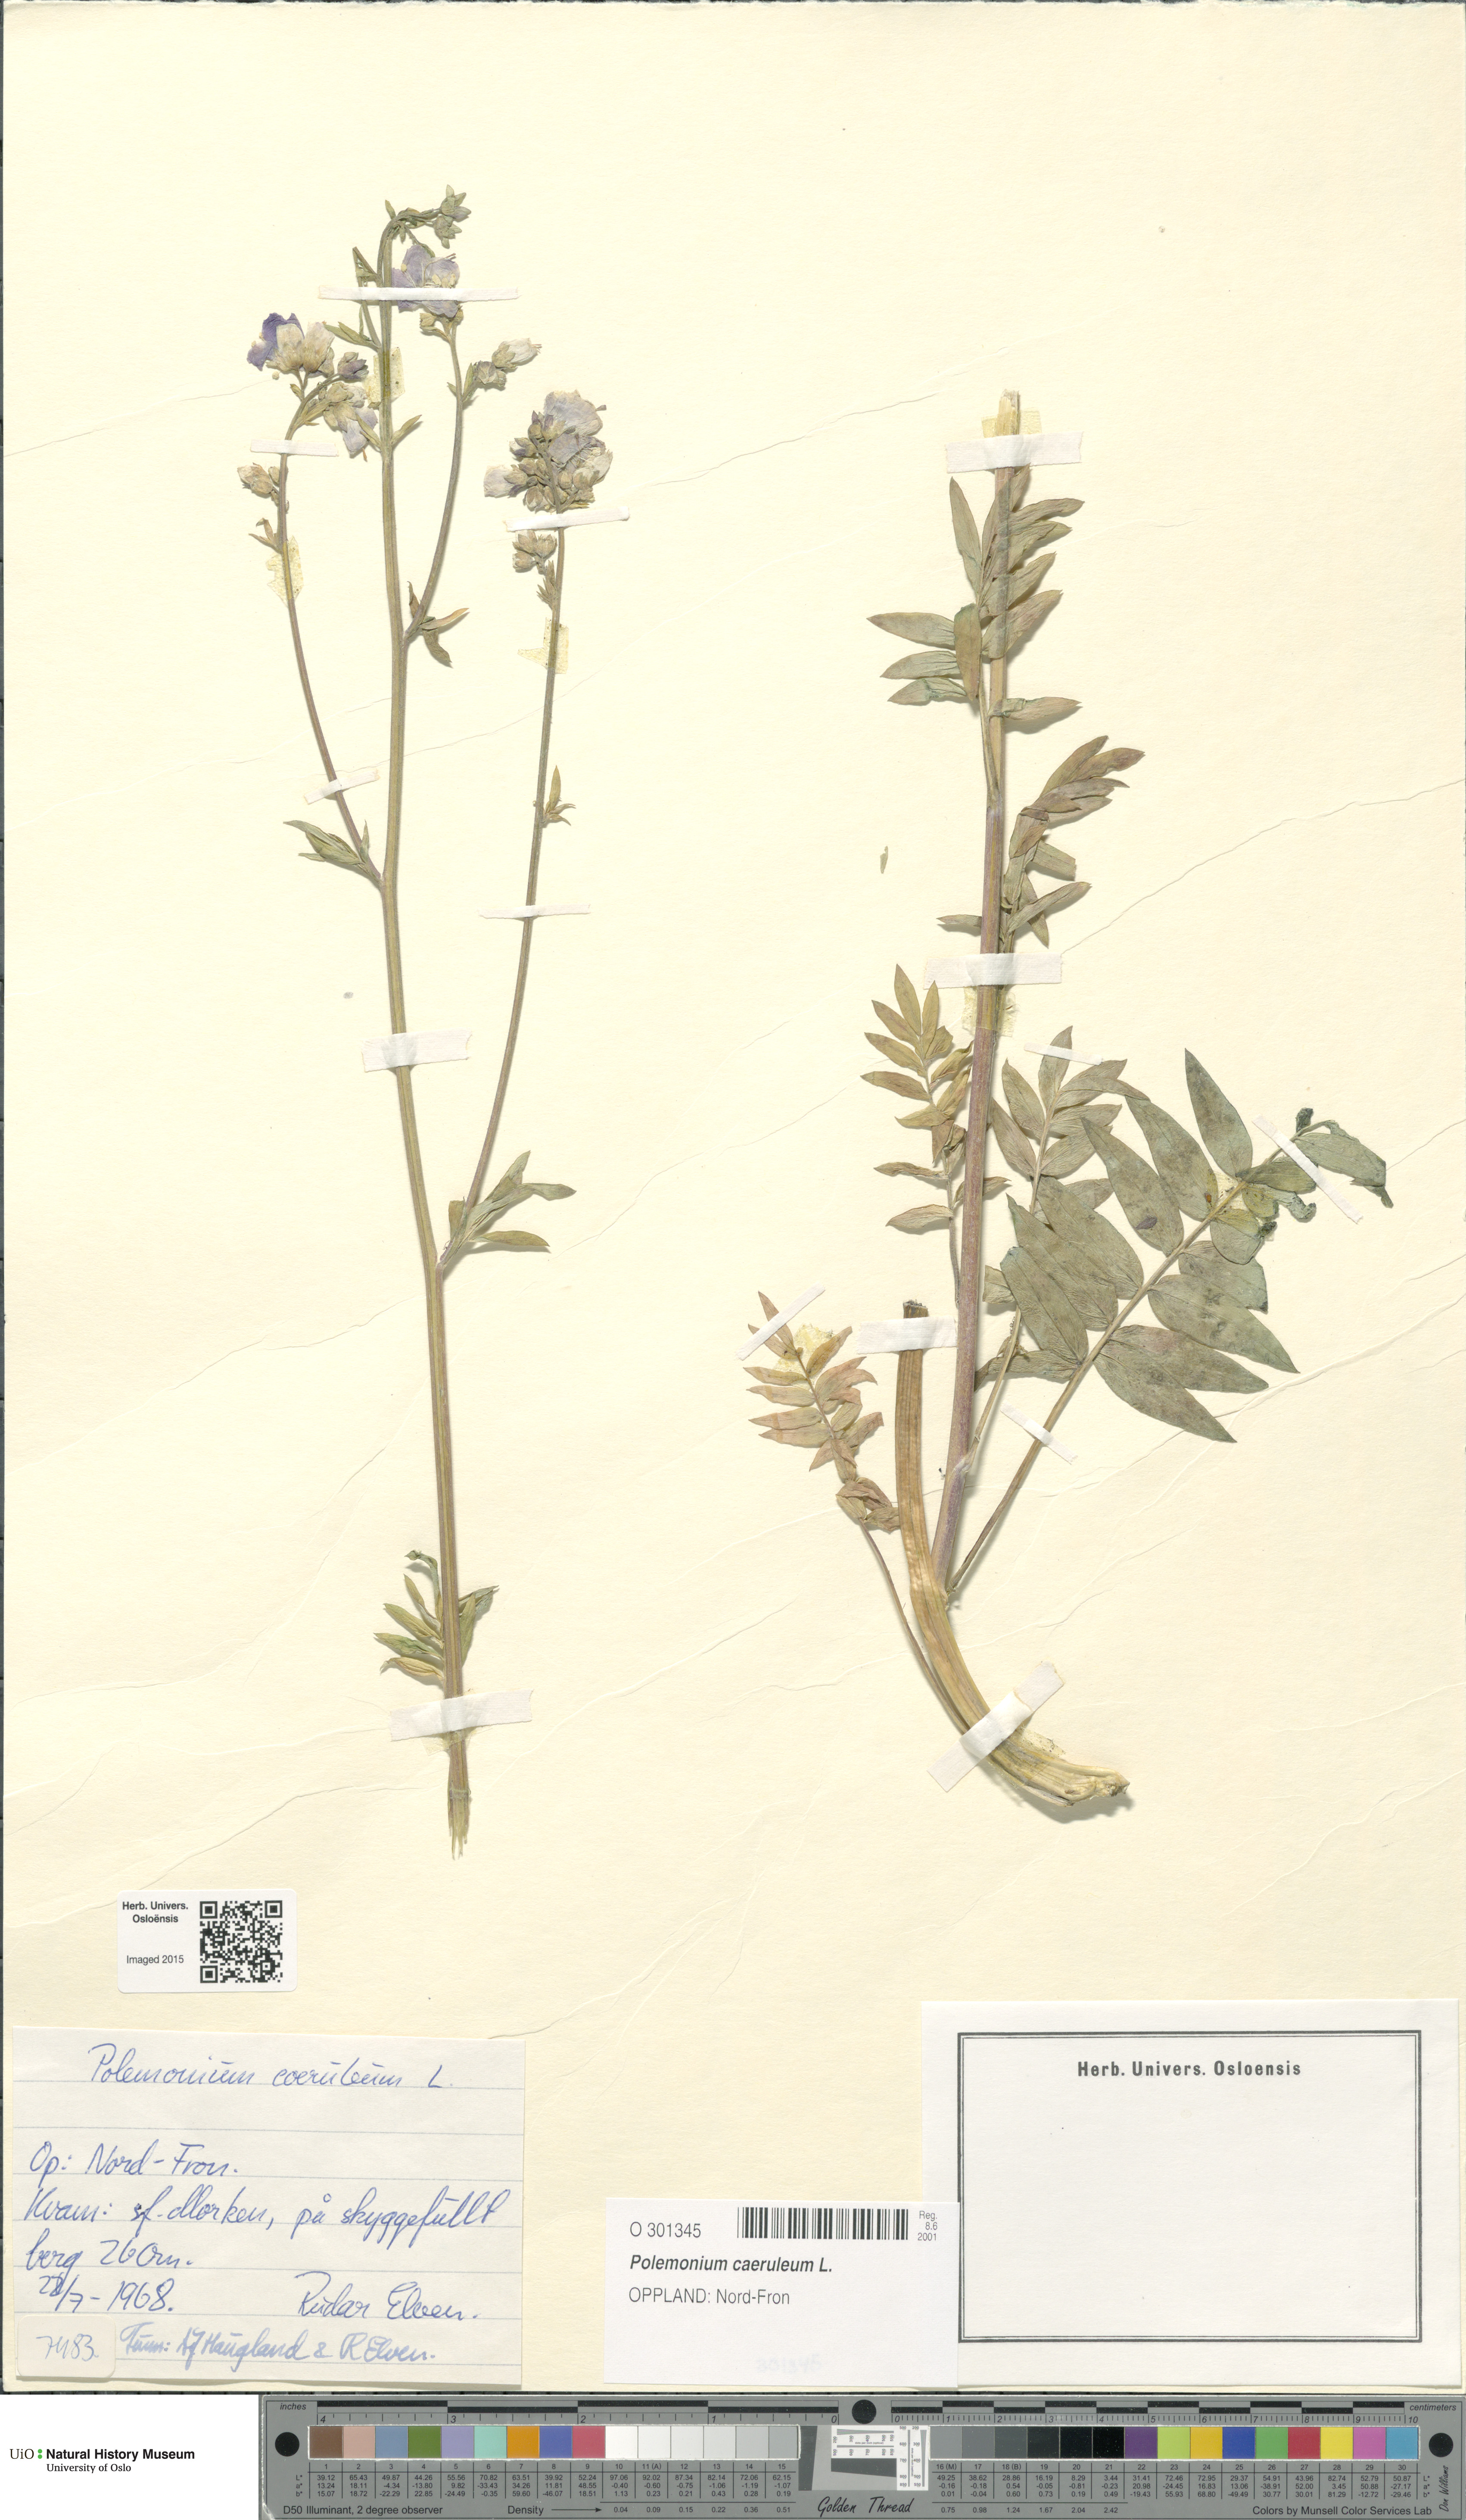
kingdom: Plantae
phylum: Tracheophyta
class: Magnoliopsida
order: Ericales
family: Polemoniaceae
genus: Polemonium
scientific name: Polemonium caeruleum
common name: Jacob's-ladder
